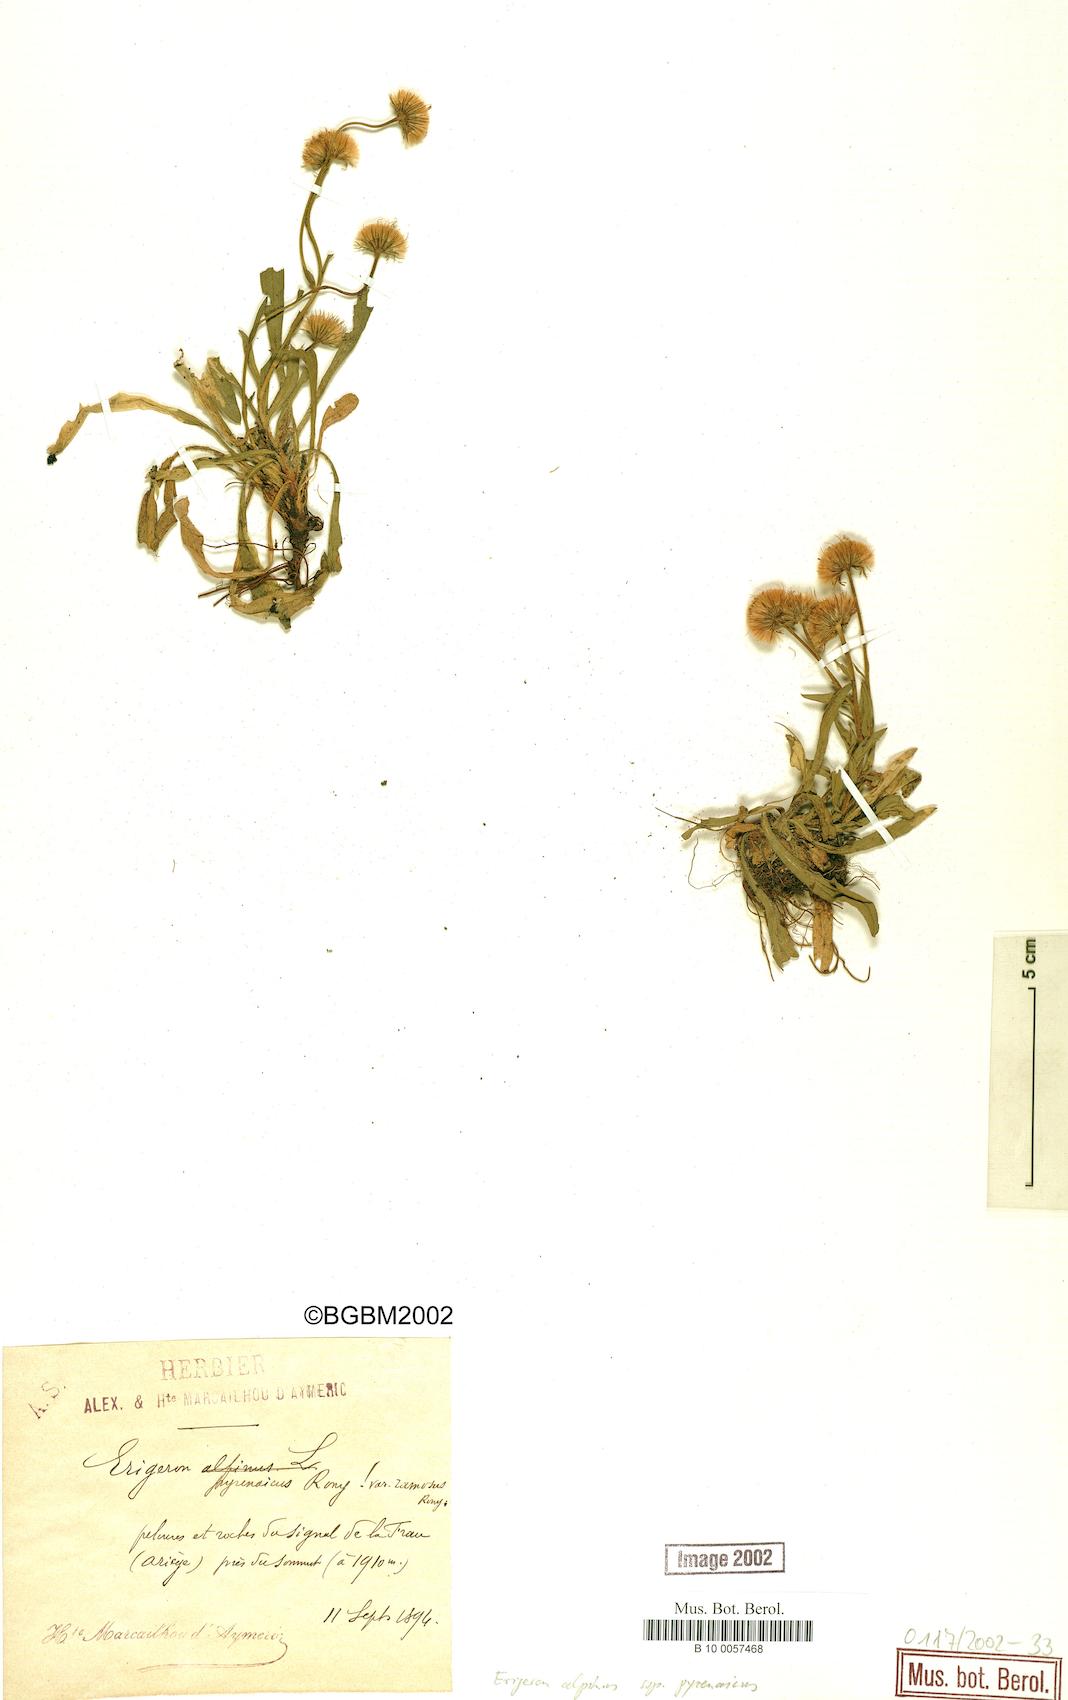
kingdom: Plantae
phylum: Tracheophyta
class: Magnoliopsida
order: Asterales
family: Asteraceae
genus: Erigeron
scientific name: Erigeron uniflorus
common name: Northern daisy
